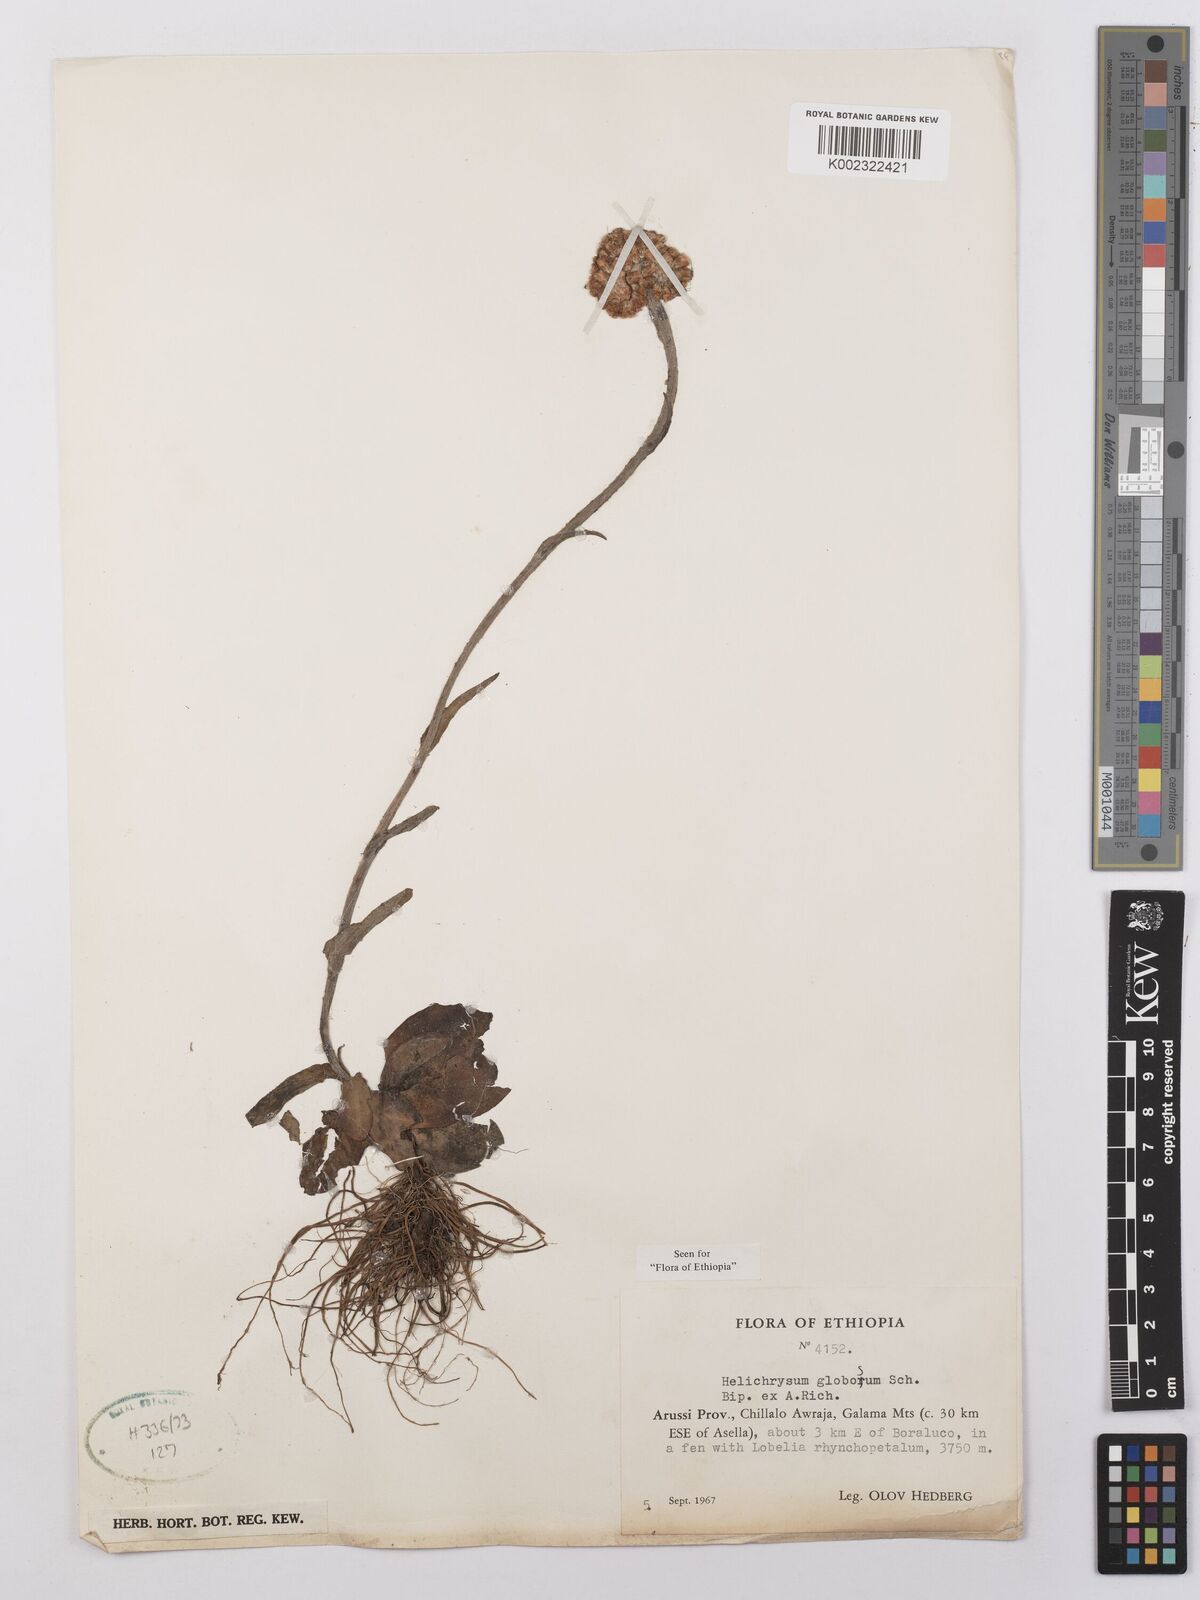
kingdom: Plantae
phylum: Tracheophyta
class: Magnoliopsida
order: Asterales
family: Asteraceae
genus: Helichrysum
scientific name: Helichrysum globosum
